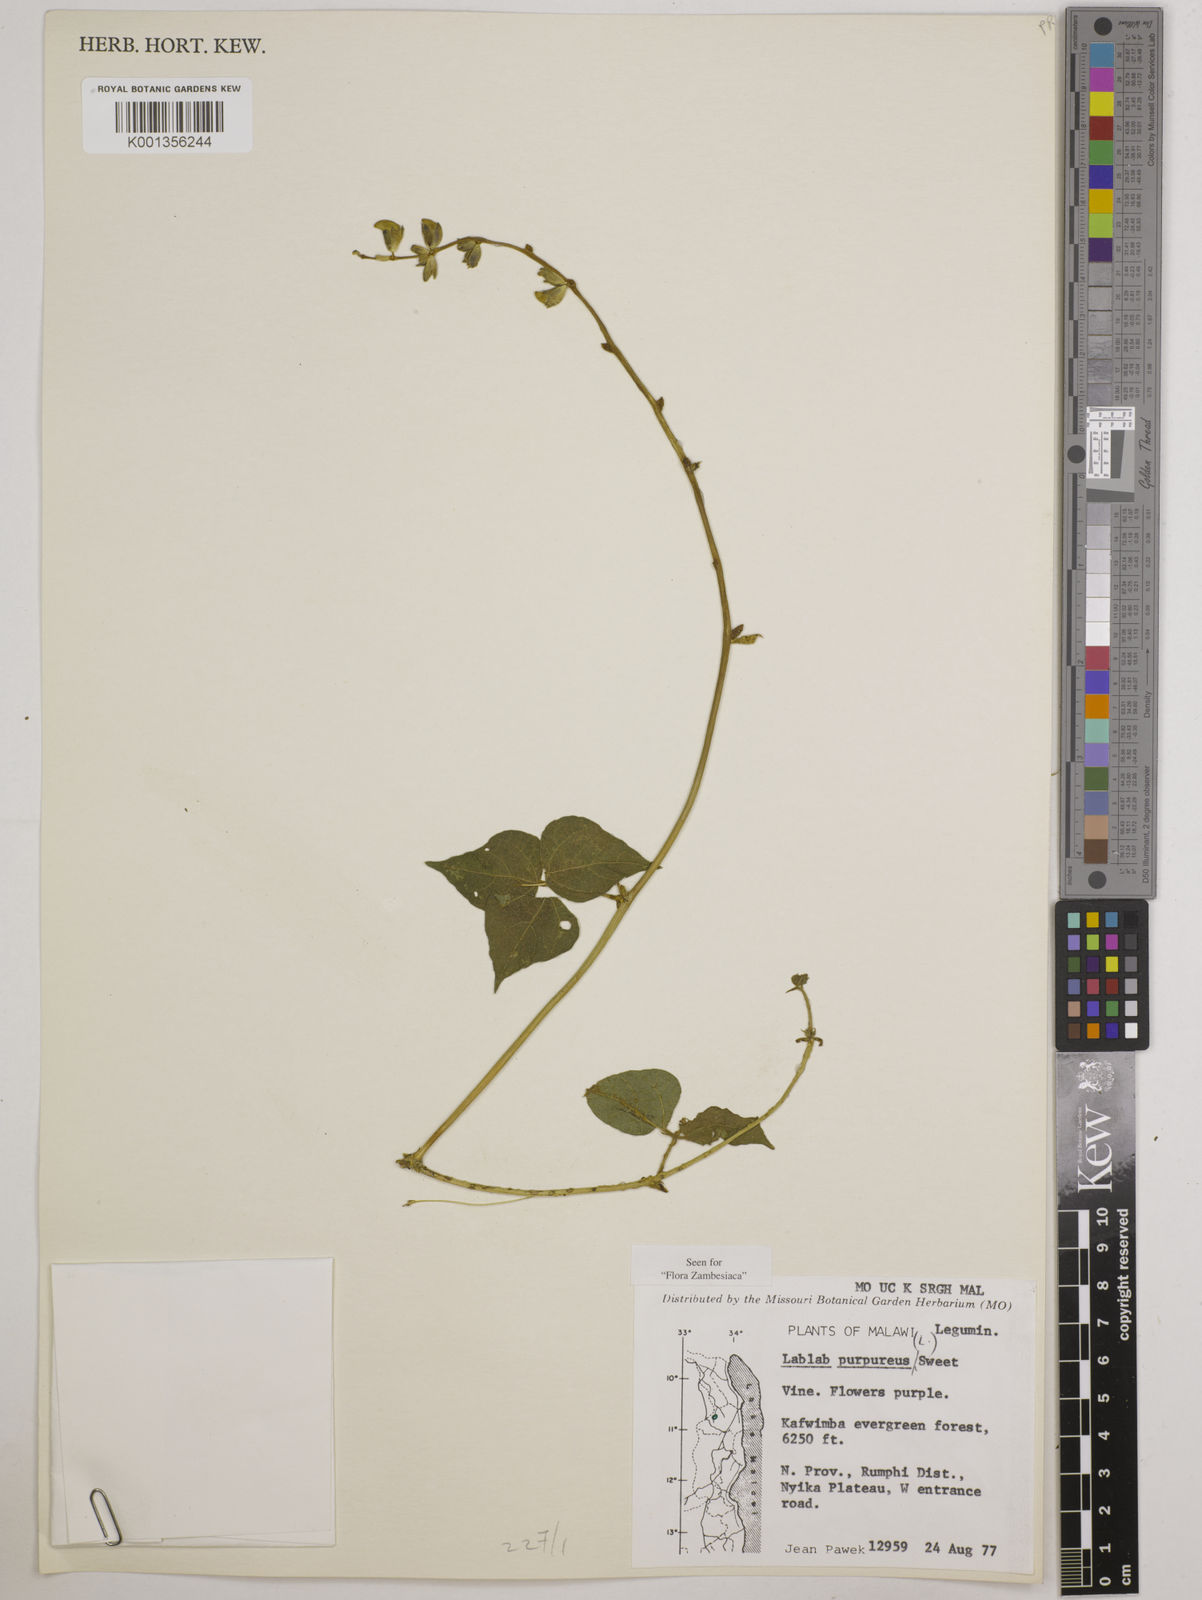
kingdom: Plantae
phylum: Tracheophyta
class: Magnoliopsida
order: Fabales
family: Fabaceae
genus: Lablab
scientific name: Lablab purpureus
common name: Lablab-bean
